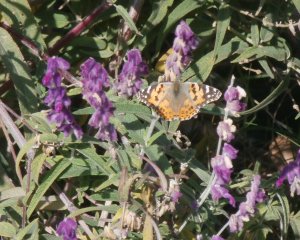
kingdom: Animalia
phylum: Arthropoda
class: Insecta
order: Lepidoptera
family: Nymphalidae
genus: Vanessa
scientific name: Vanessa cardui
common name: Painted Lady
